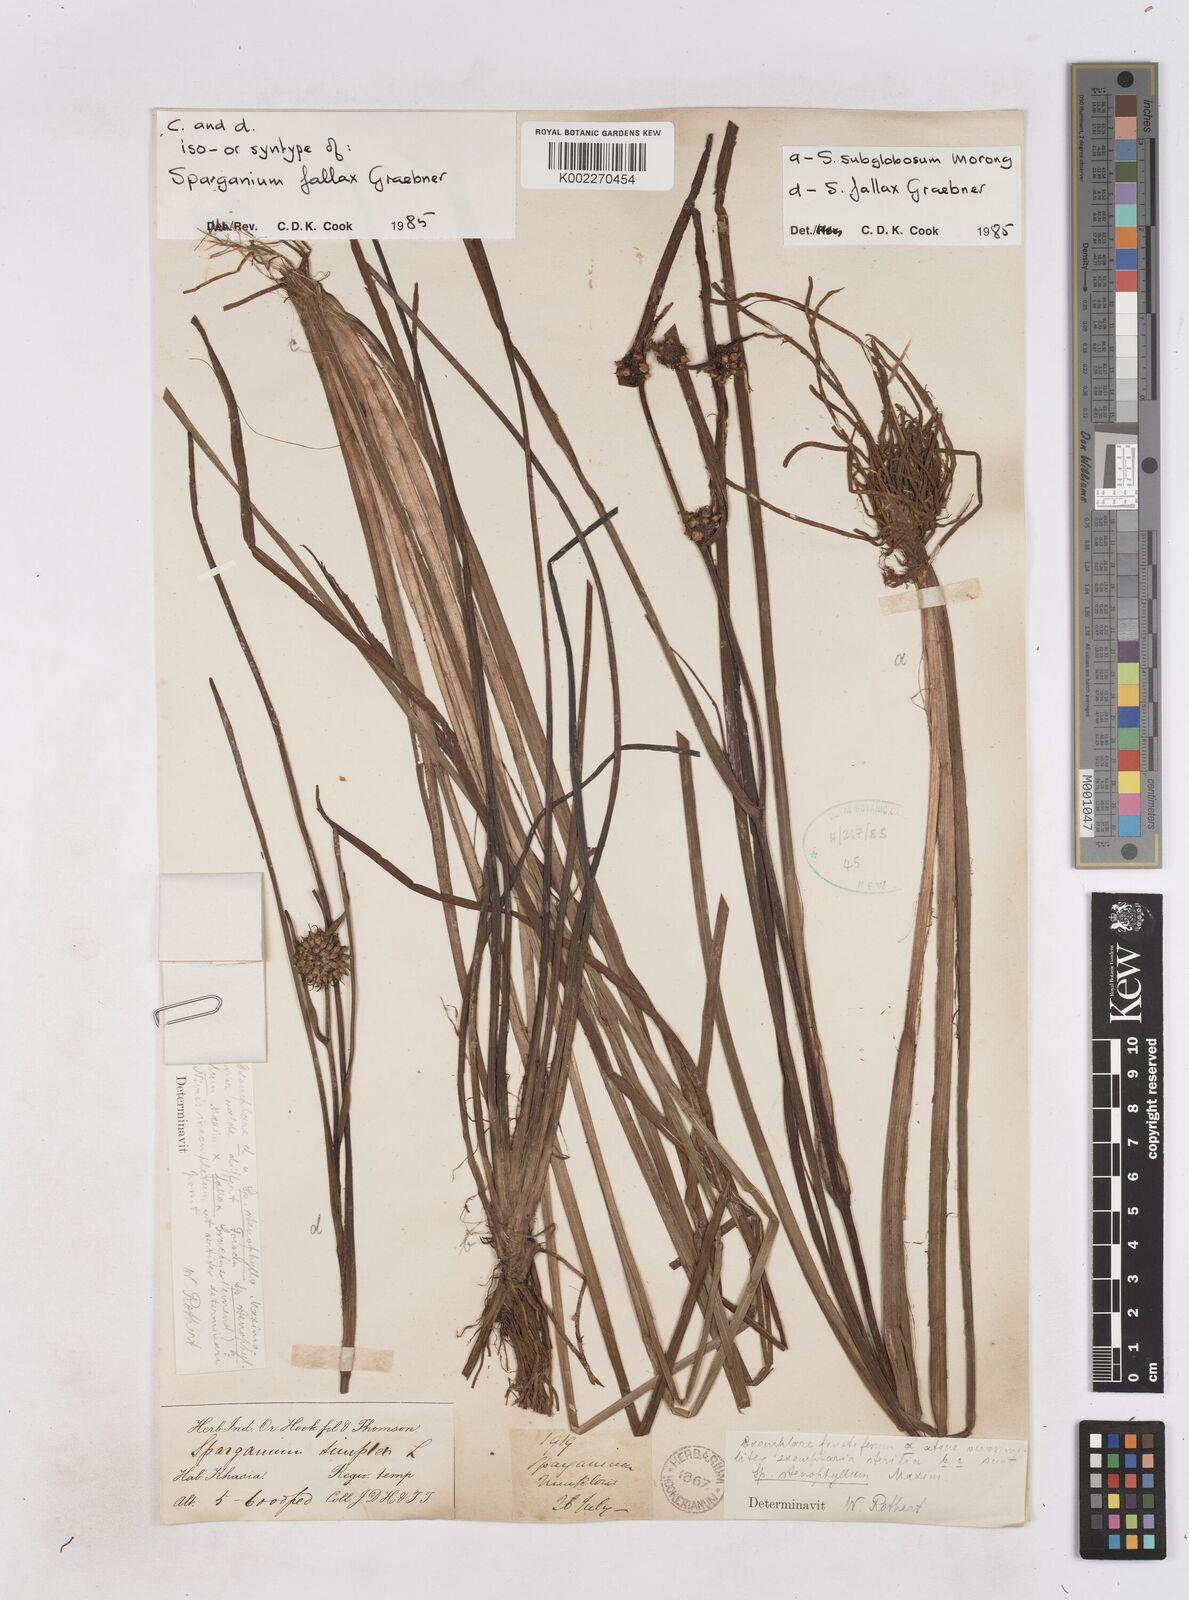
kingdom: Plantae
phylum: Tracheophyta
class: Liliopsida
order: Poales
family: Typhaceae
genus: Sparganium
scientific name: Sparganium fallax
